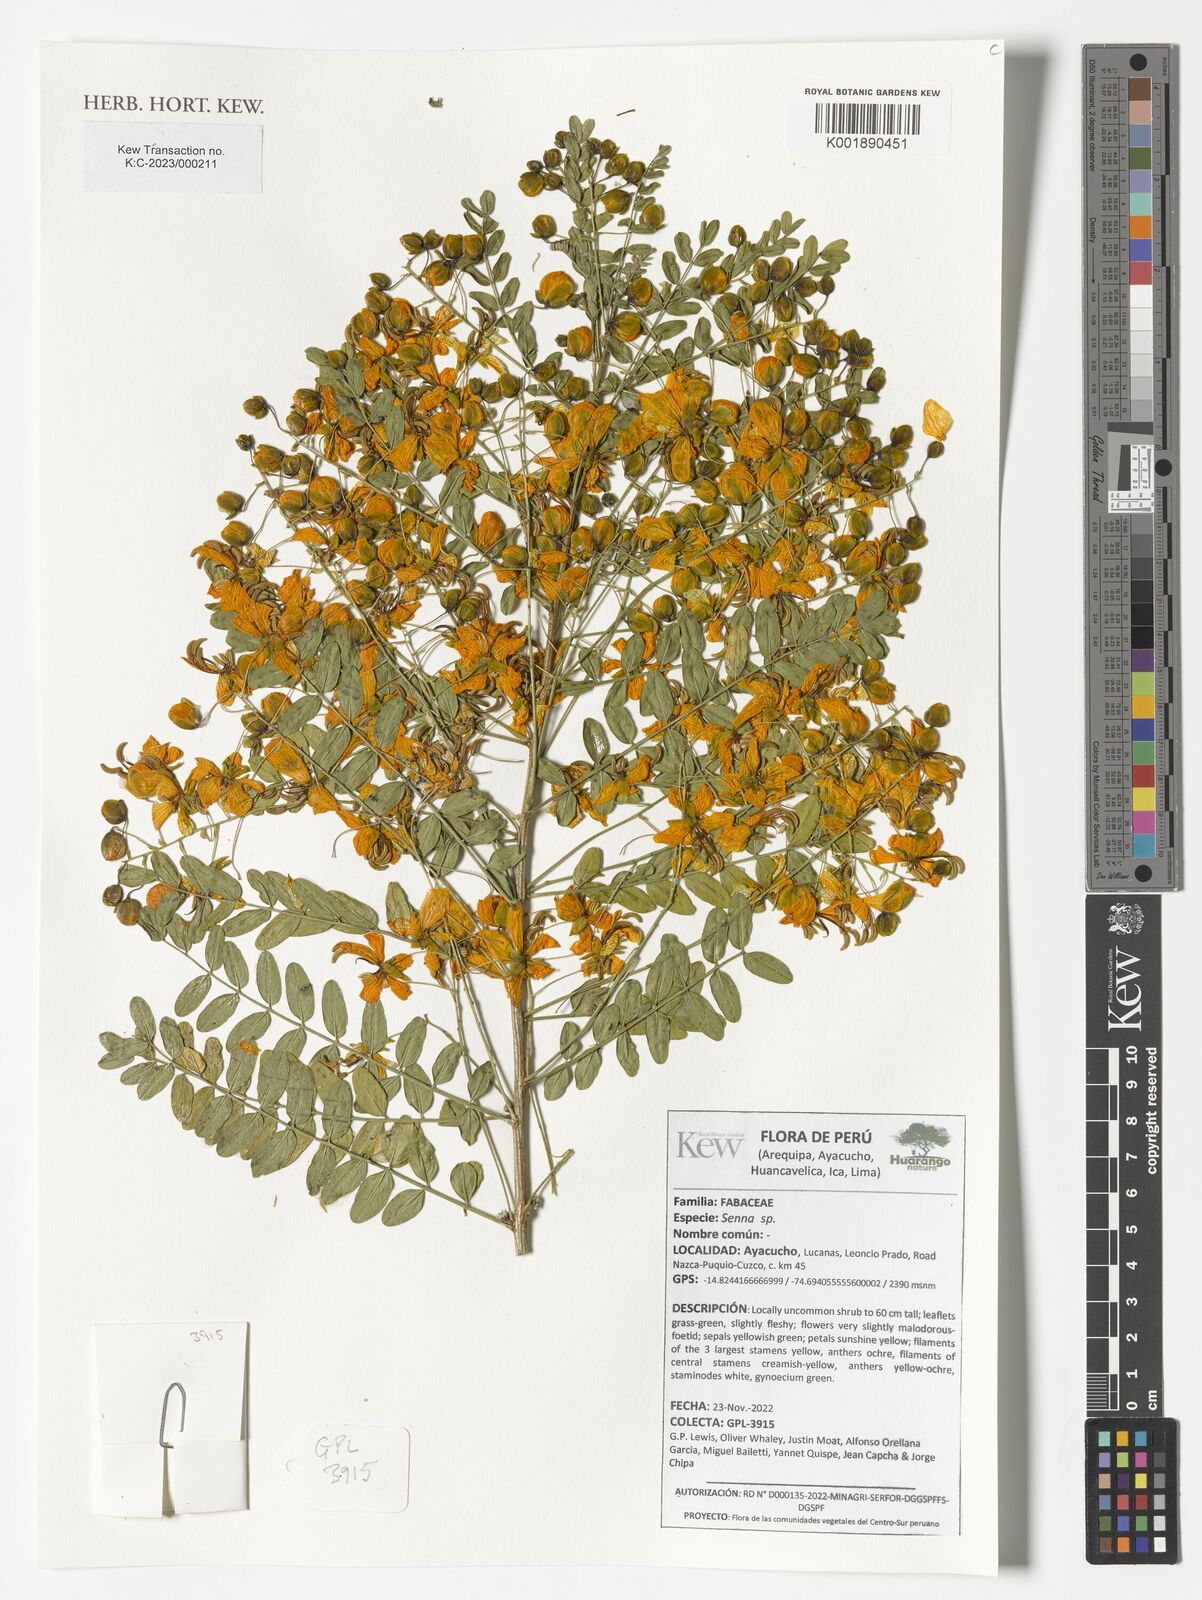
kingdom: Plantae
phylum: Tracheophyta
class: Magnoliopsida
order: Fabales
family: Fabaceae
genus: Senna
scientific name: Senna
